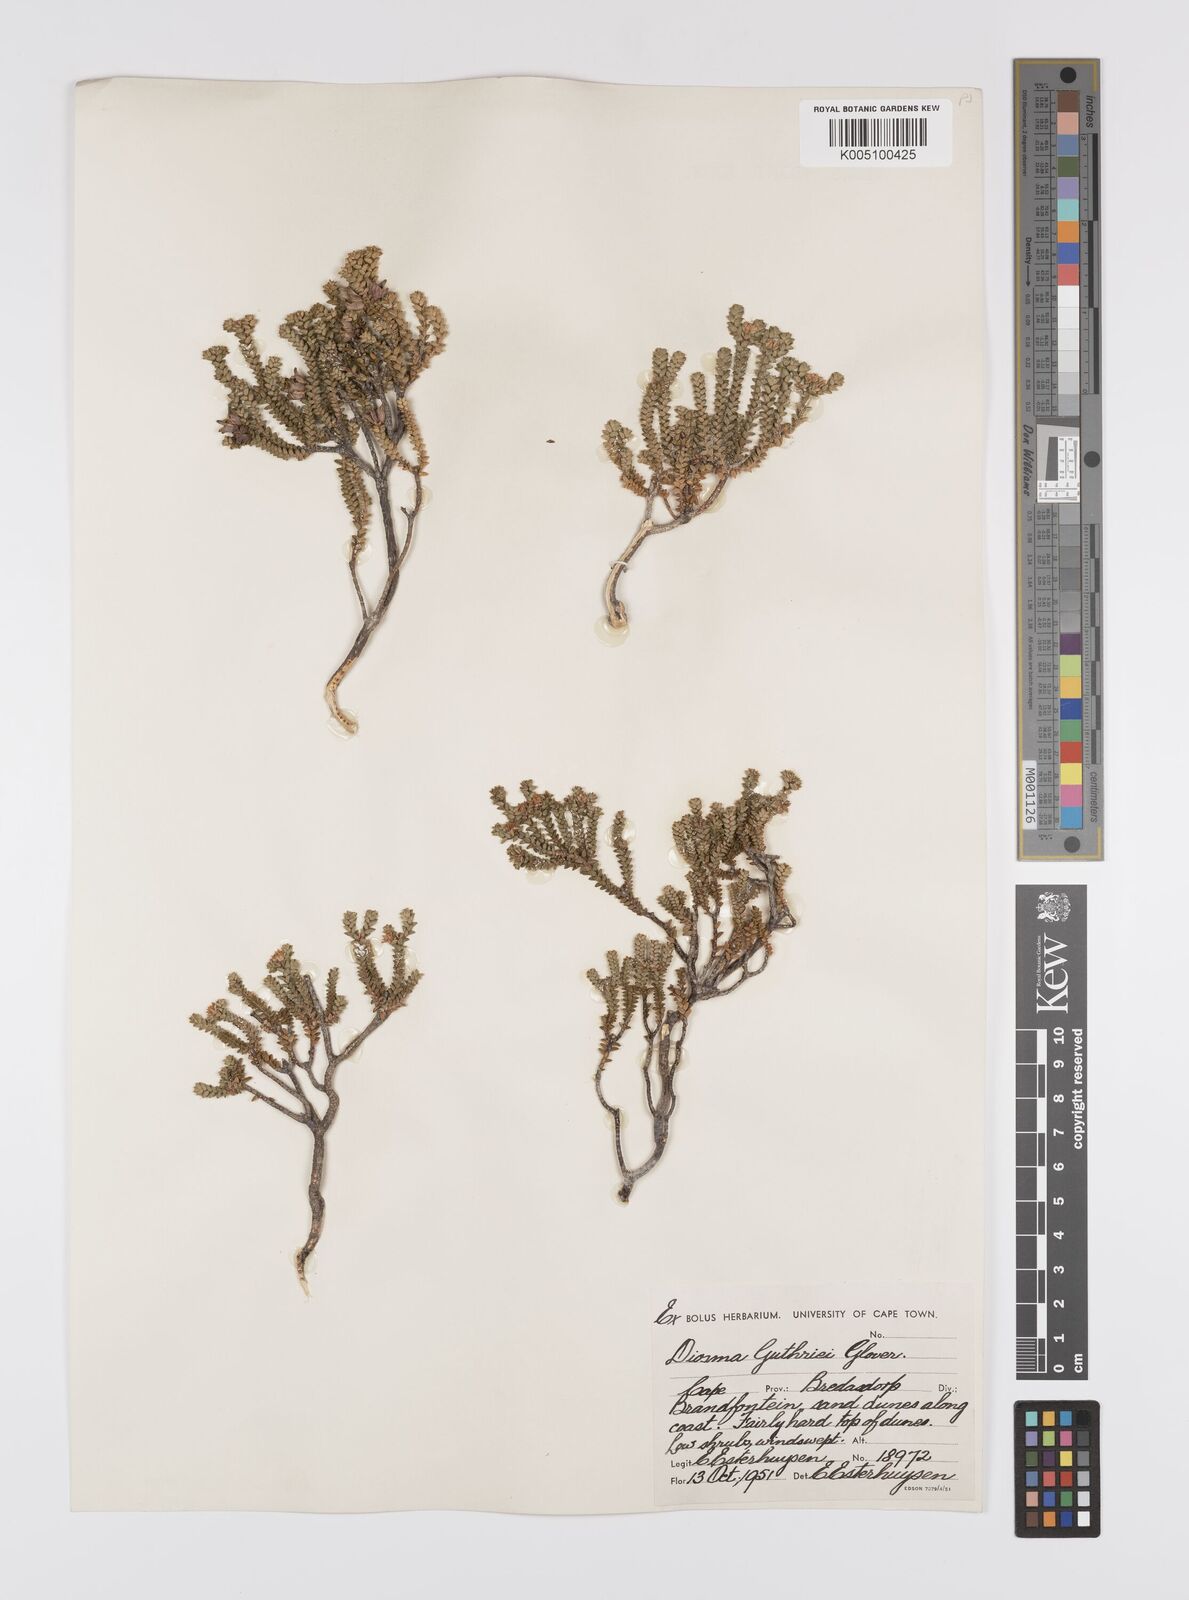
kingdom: Plantae
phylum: Tracheophyta
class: Magnoliopsida
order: Sapindales
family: Rutaceae
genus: Diosma
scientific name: Diosma guthriei
